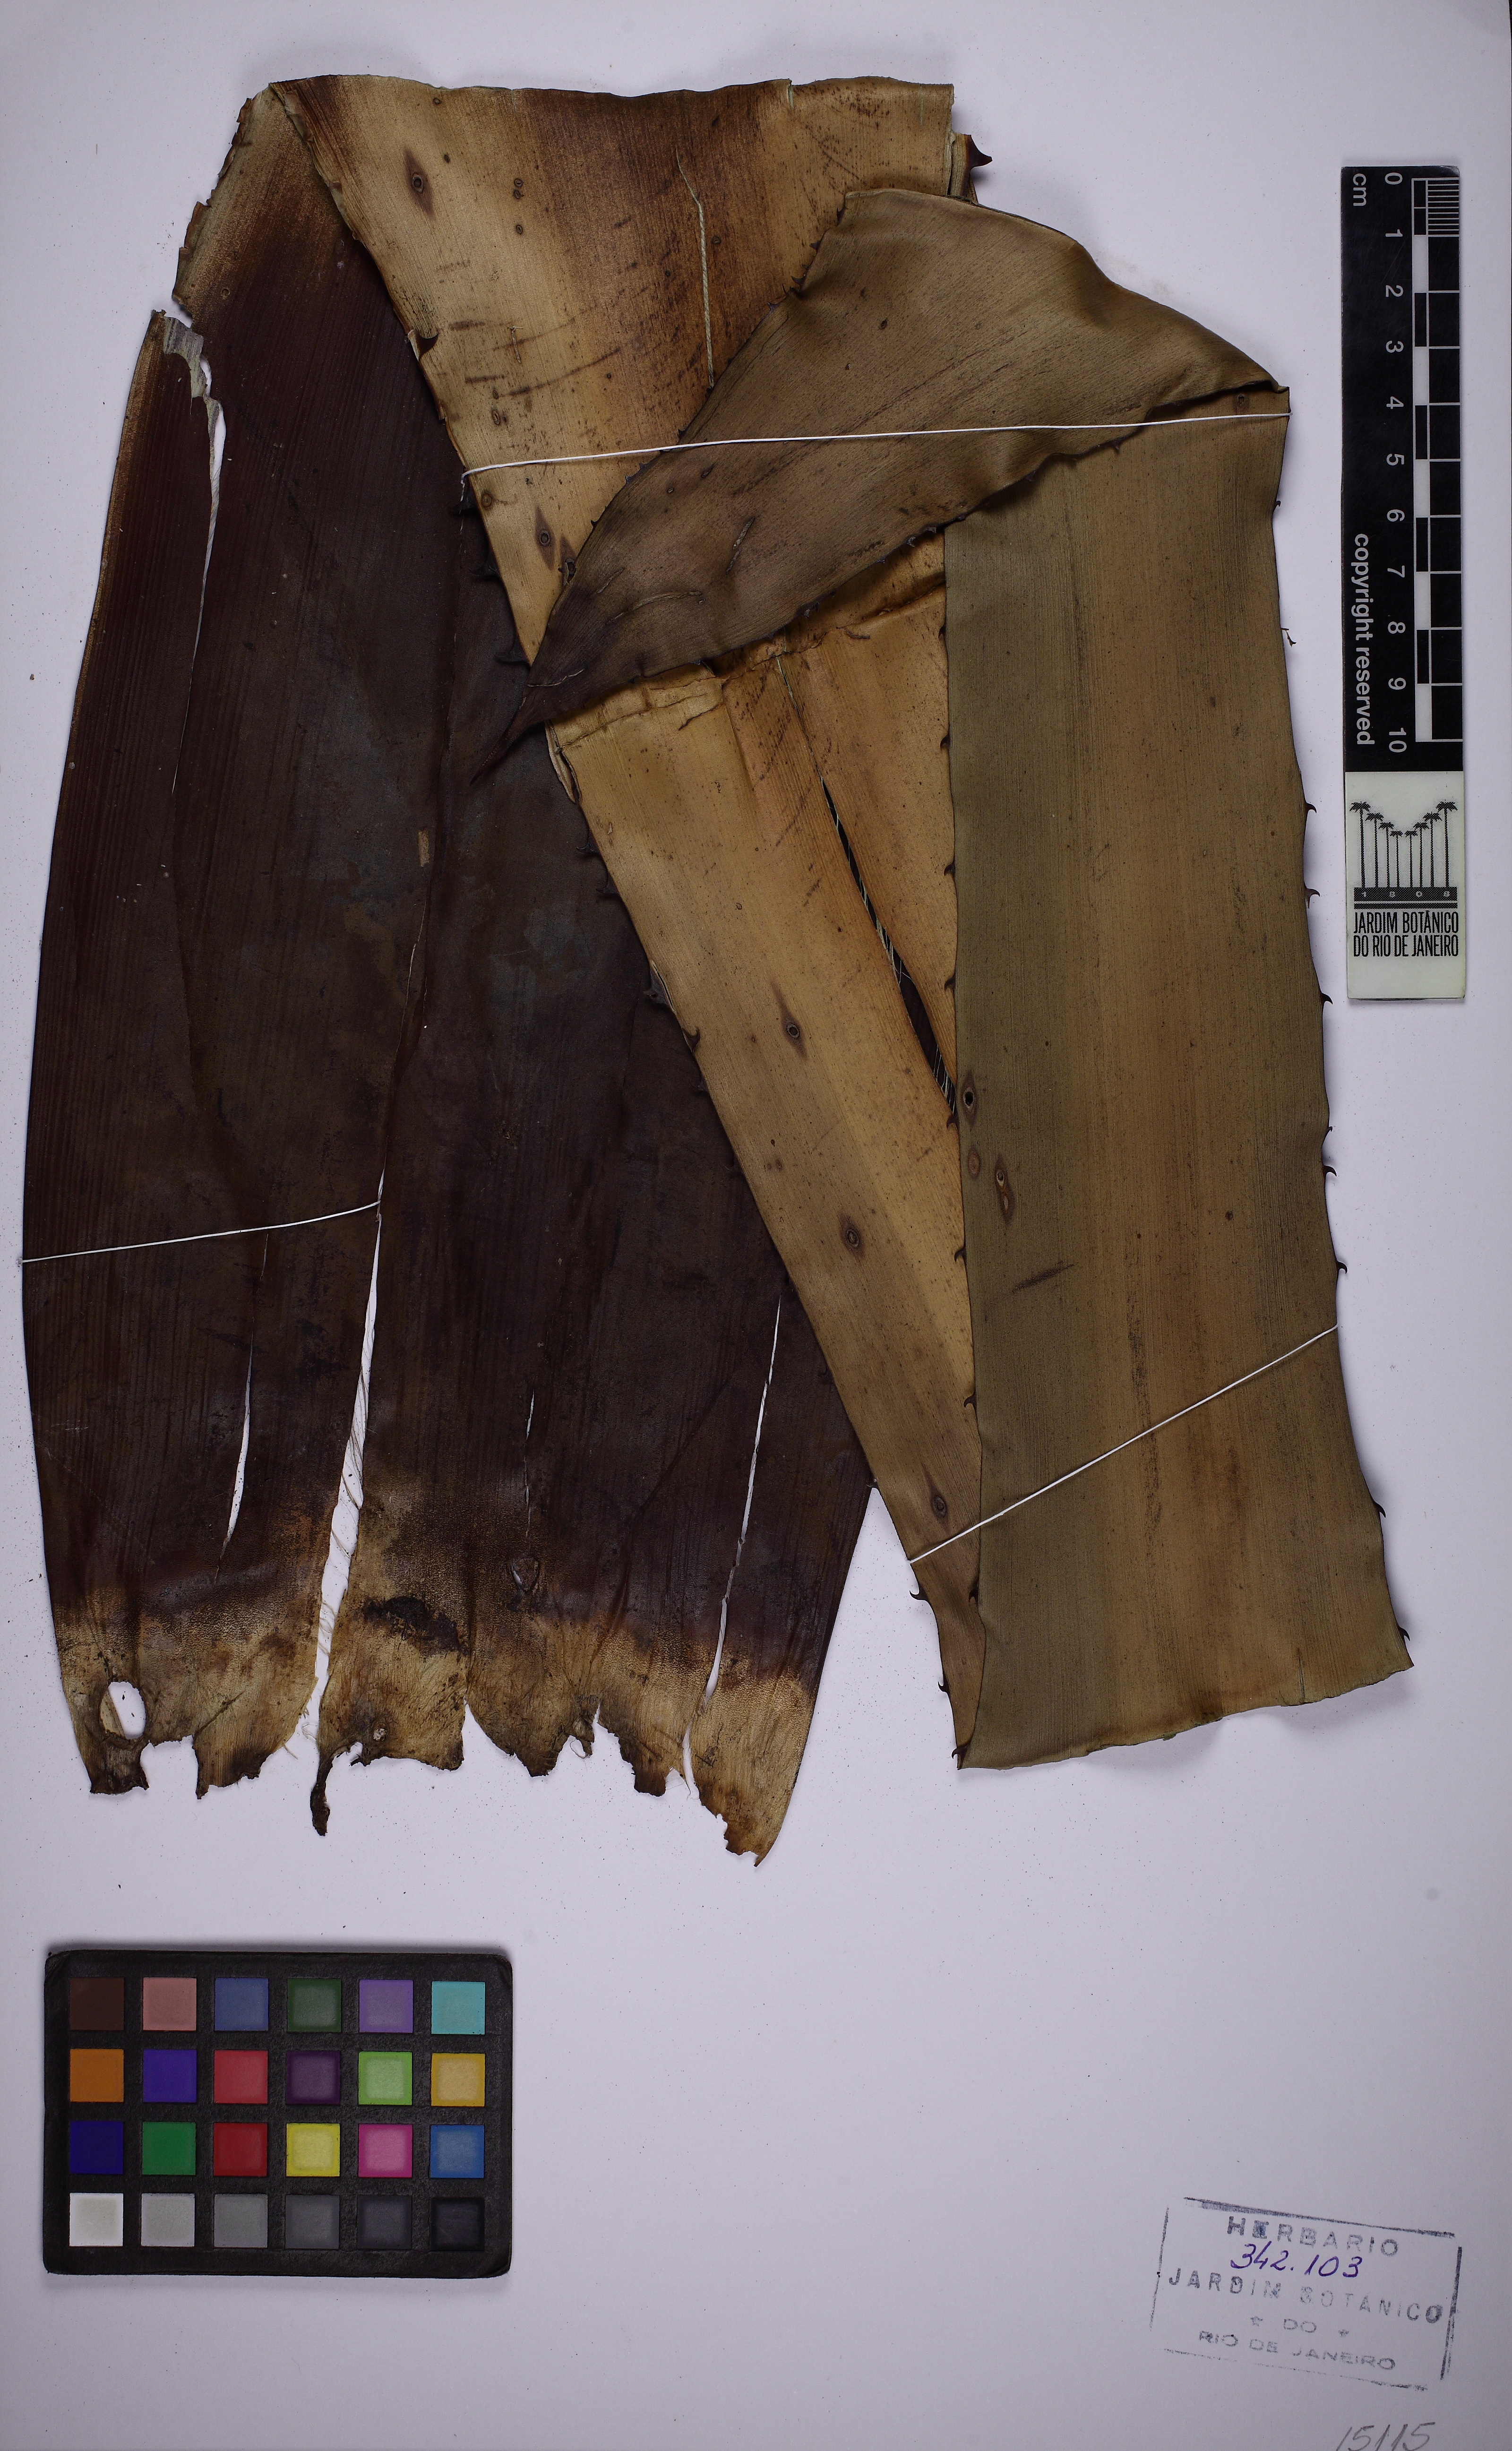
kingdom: Plantae
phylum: Tracheophyta
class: Liliopsida
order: Poales
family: Bromeliaceae
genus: Hohenbergia
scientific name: Hohenbergia ridleyi
